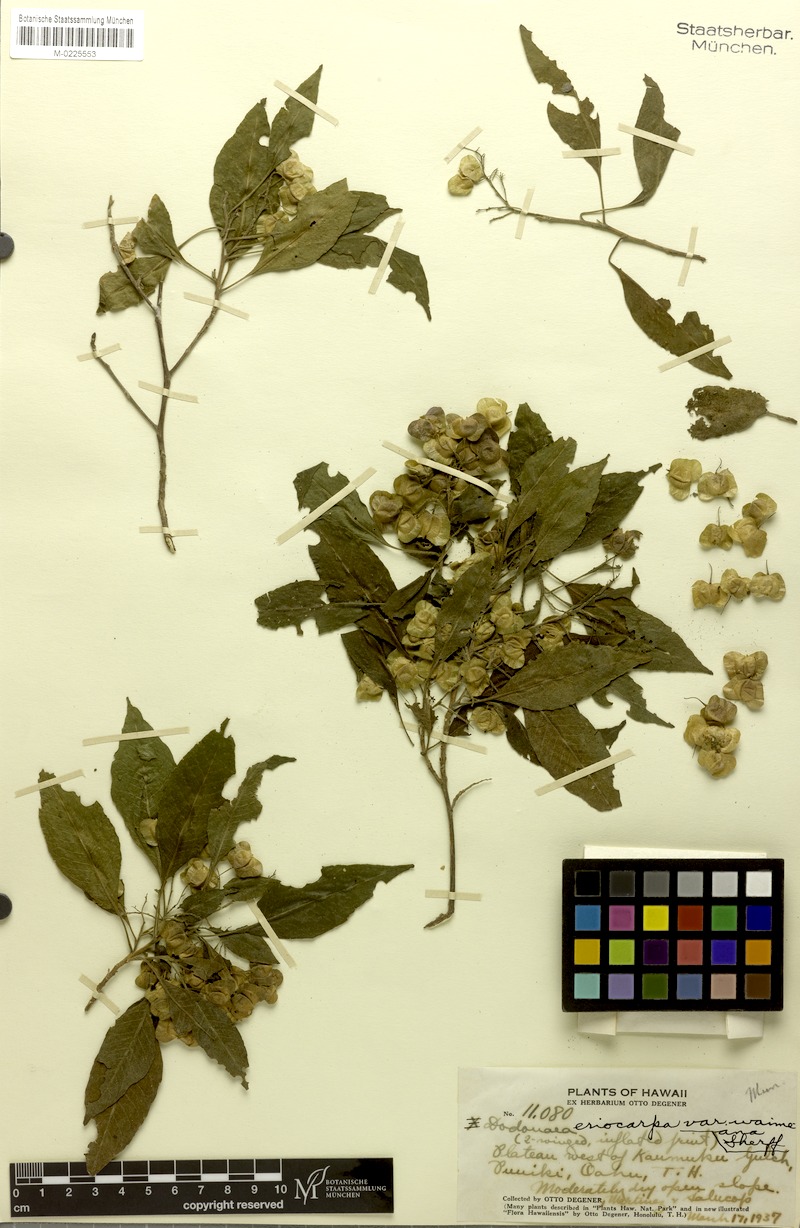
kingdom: Plantae
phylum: Tracheophyta
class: Magnoliopsida
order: Sapindales
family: Sapindaceae
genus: Dodonaea
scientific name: Dodonaea viscosa
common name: Hopbush
